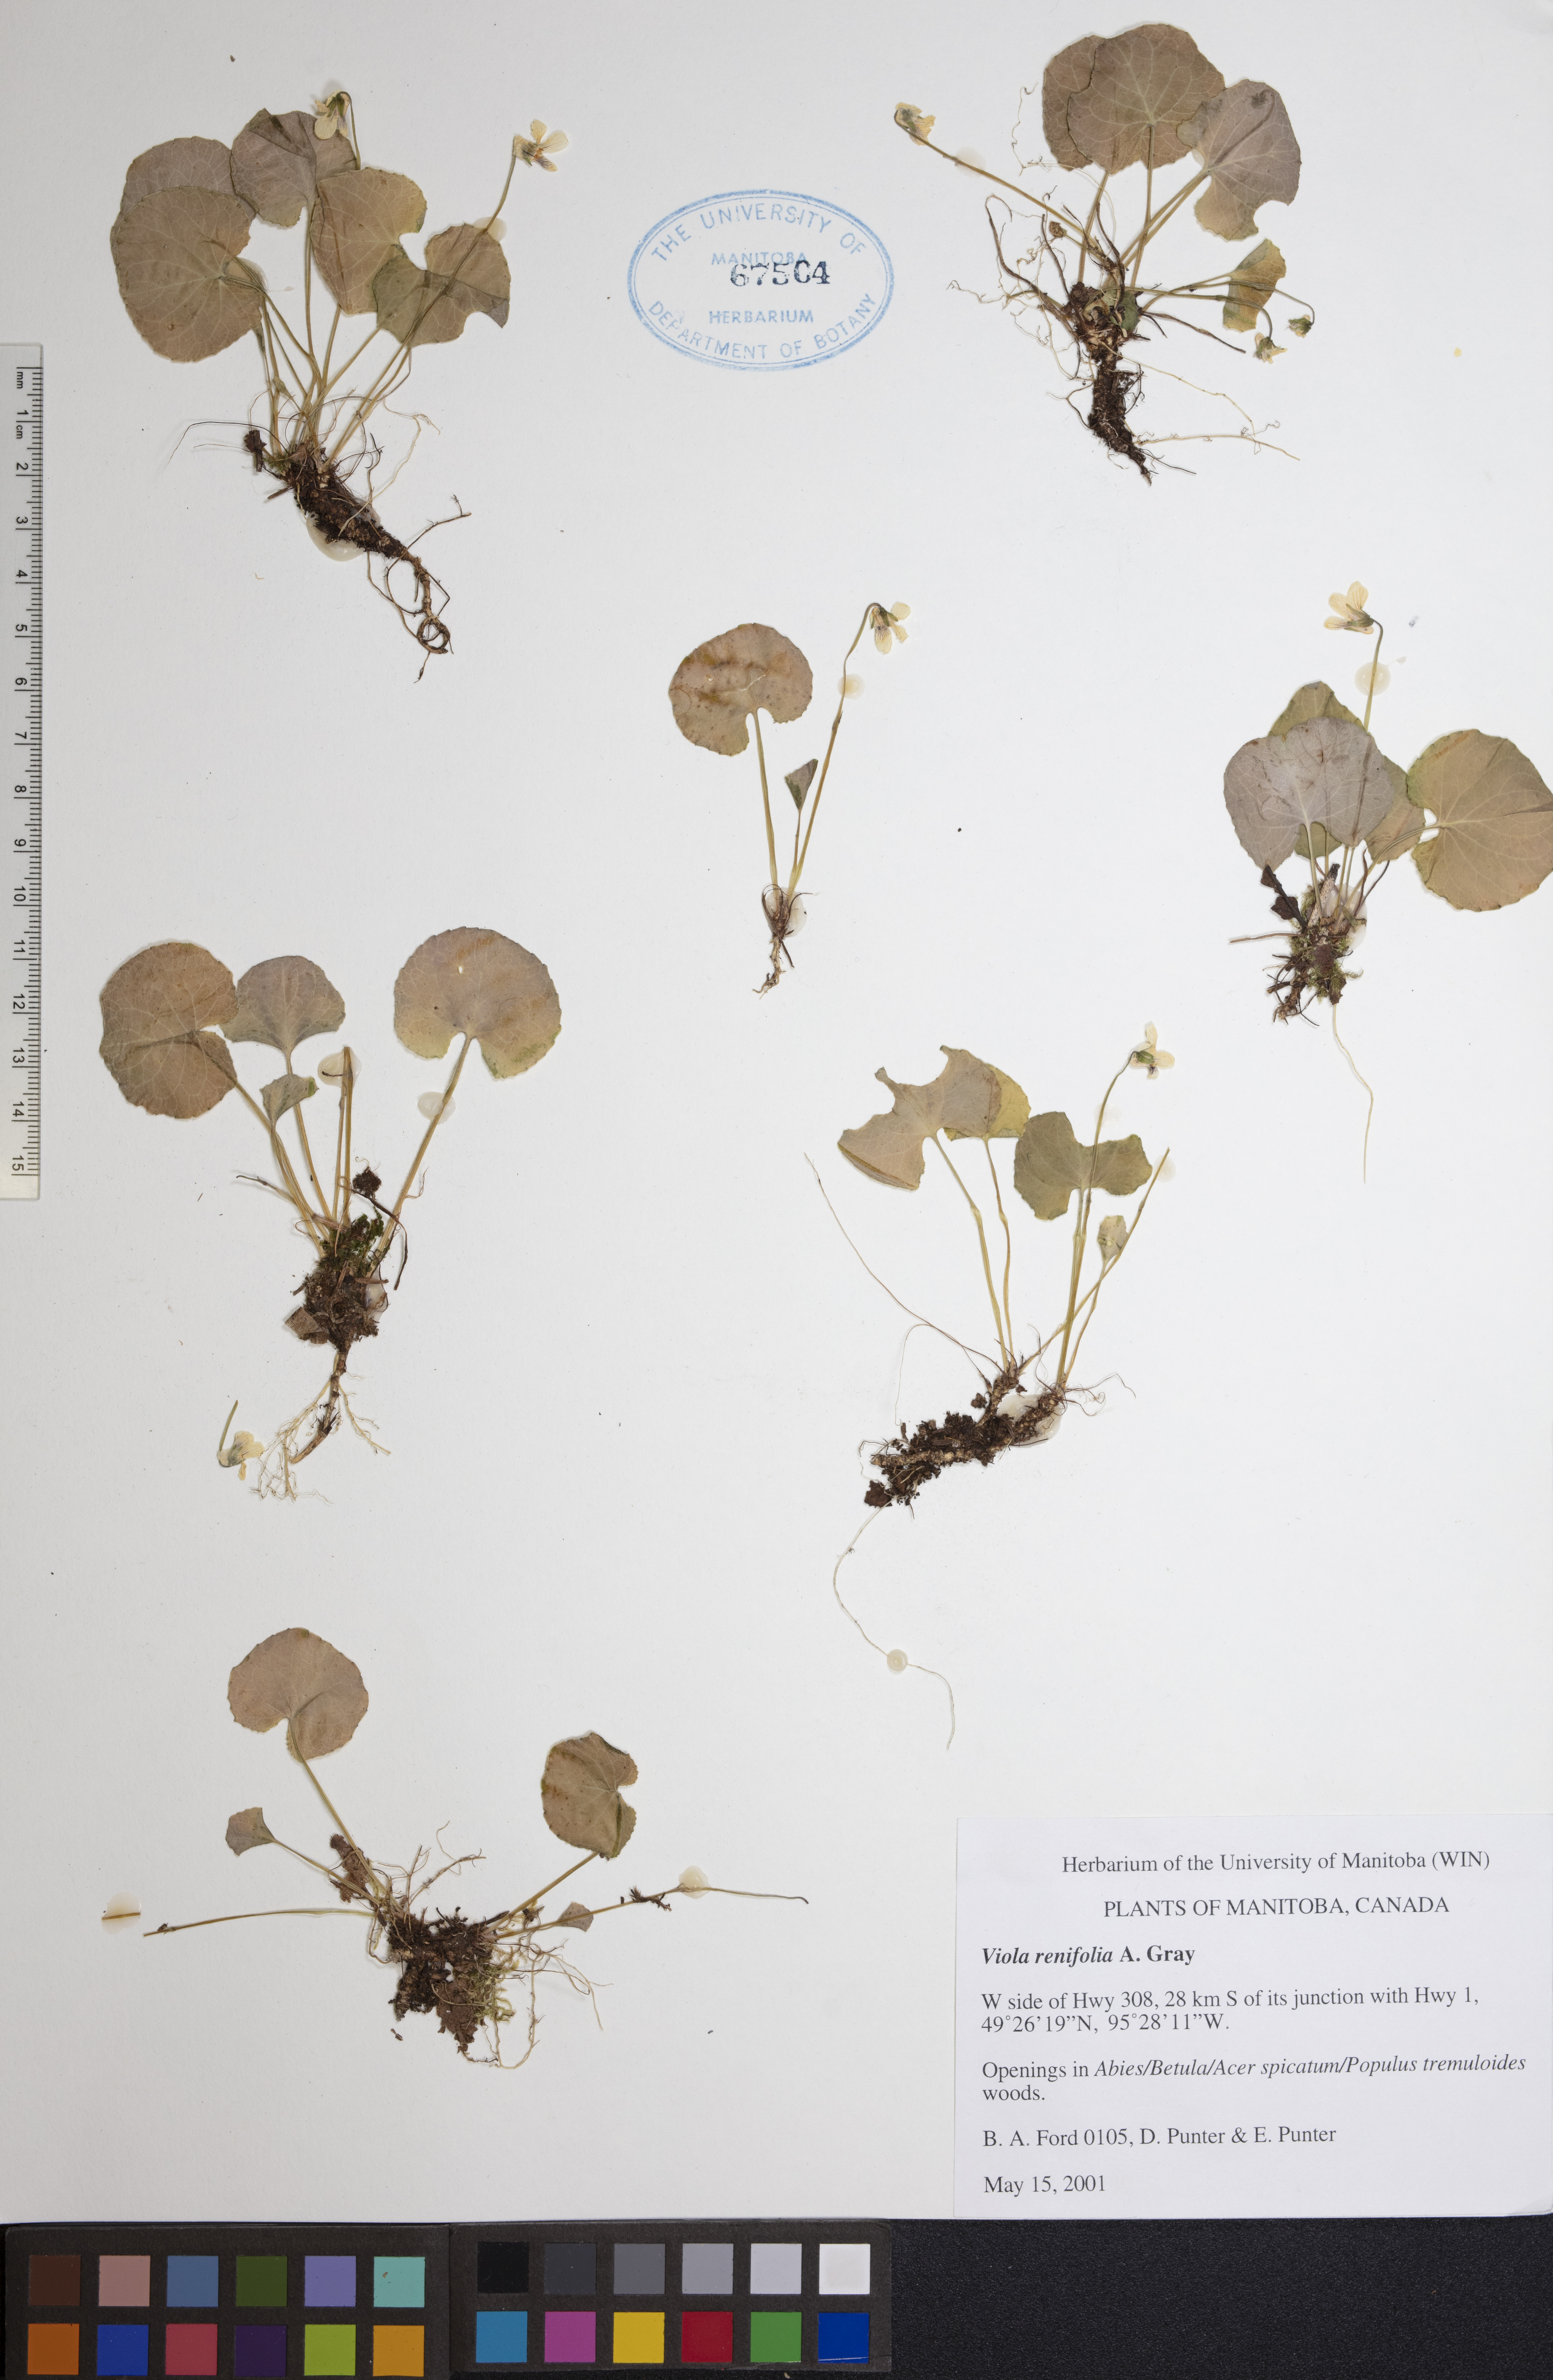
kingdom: Plantae
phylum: Tracheophyta
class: Magnoliopsida
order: Malpighiales
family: Violaceae
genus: Viola
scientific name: Viola renifolia
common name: Kidney-leaf violet
